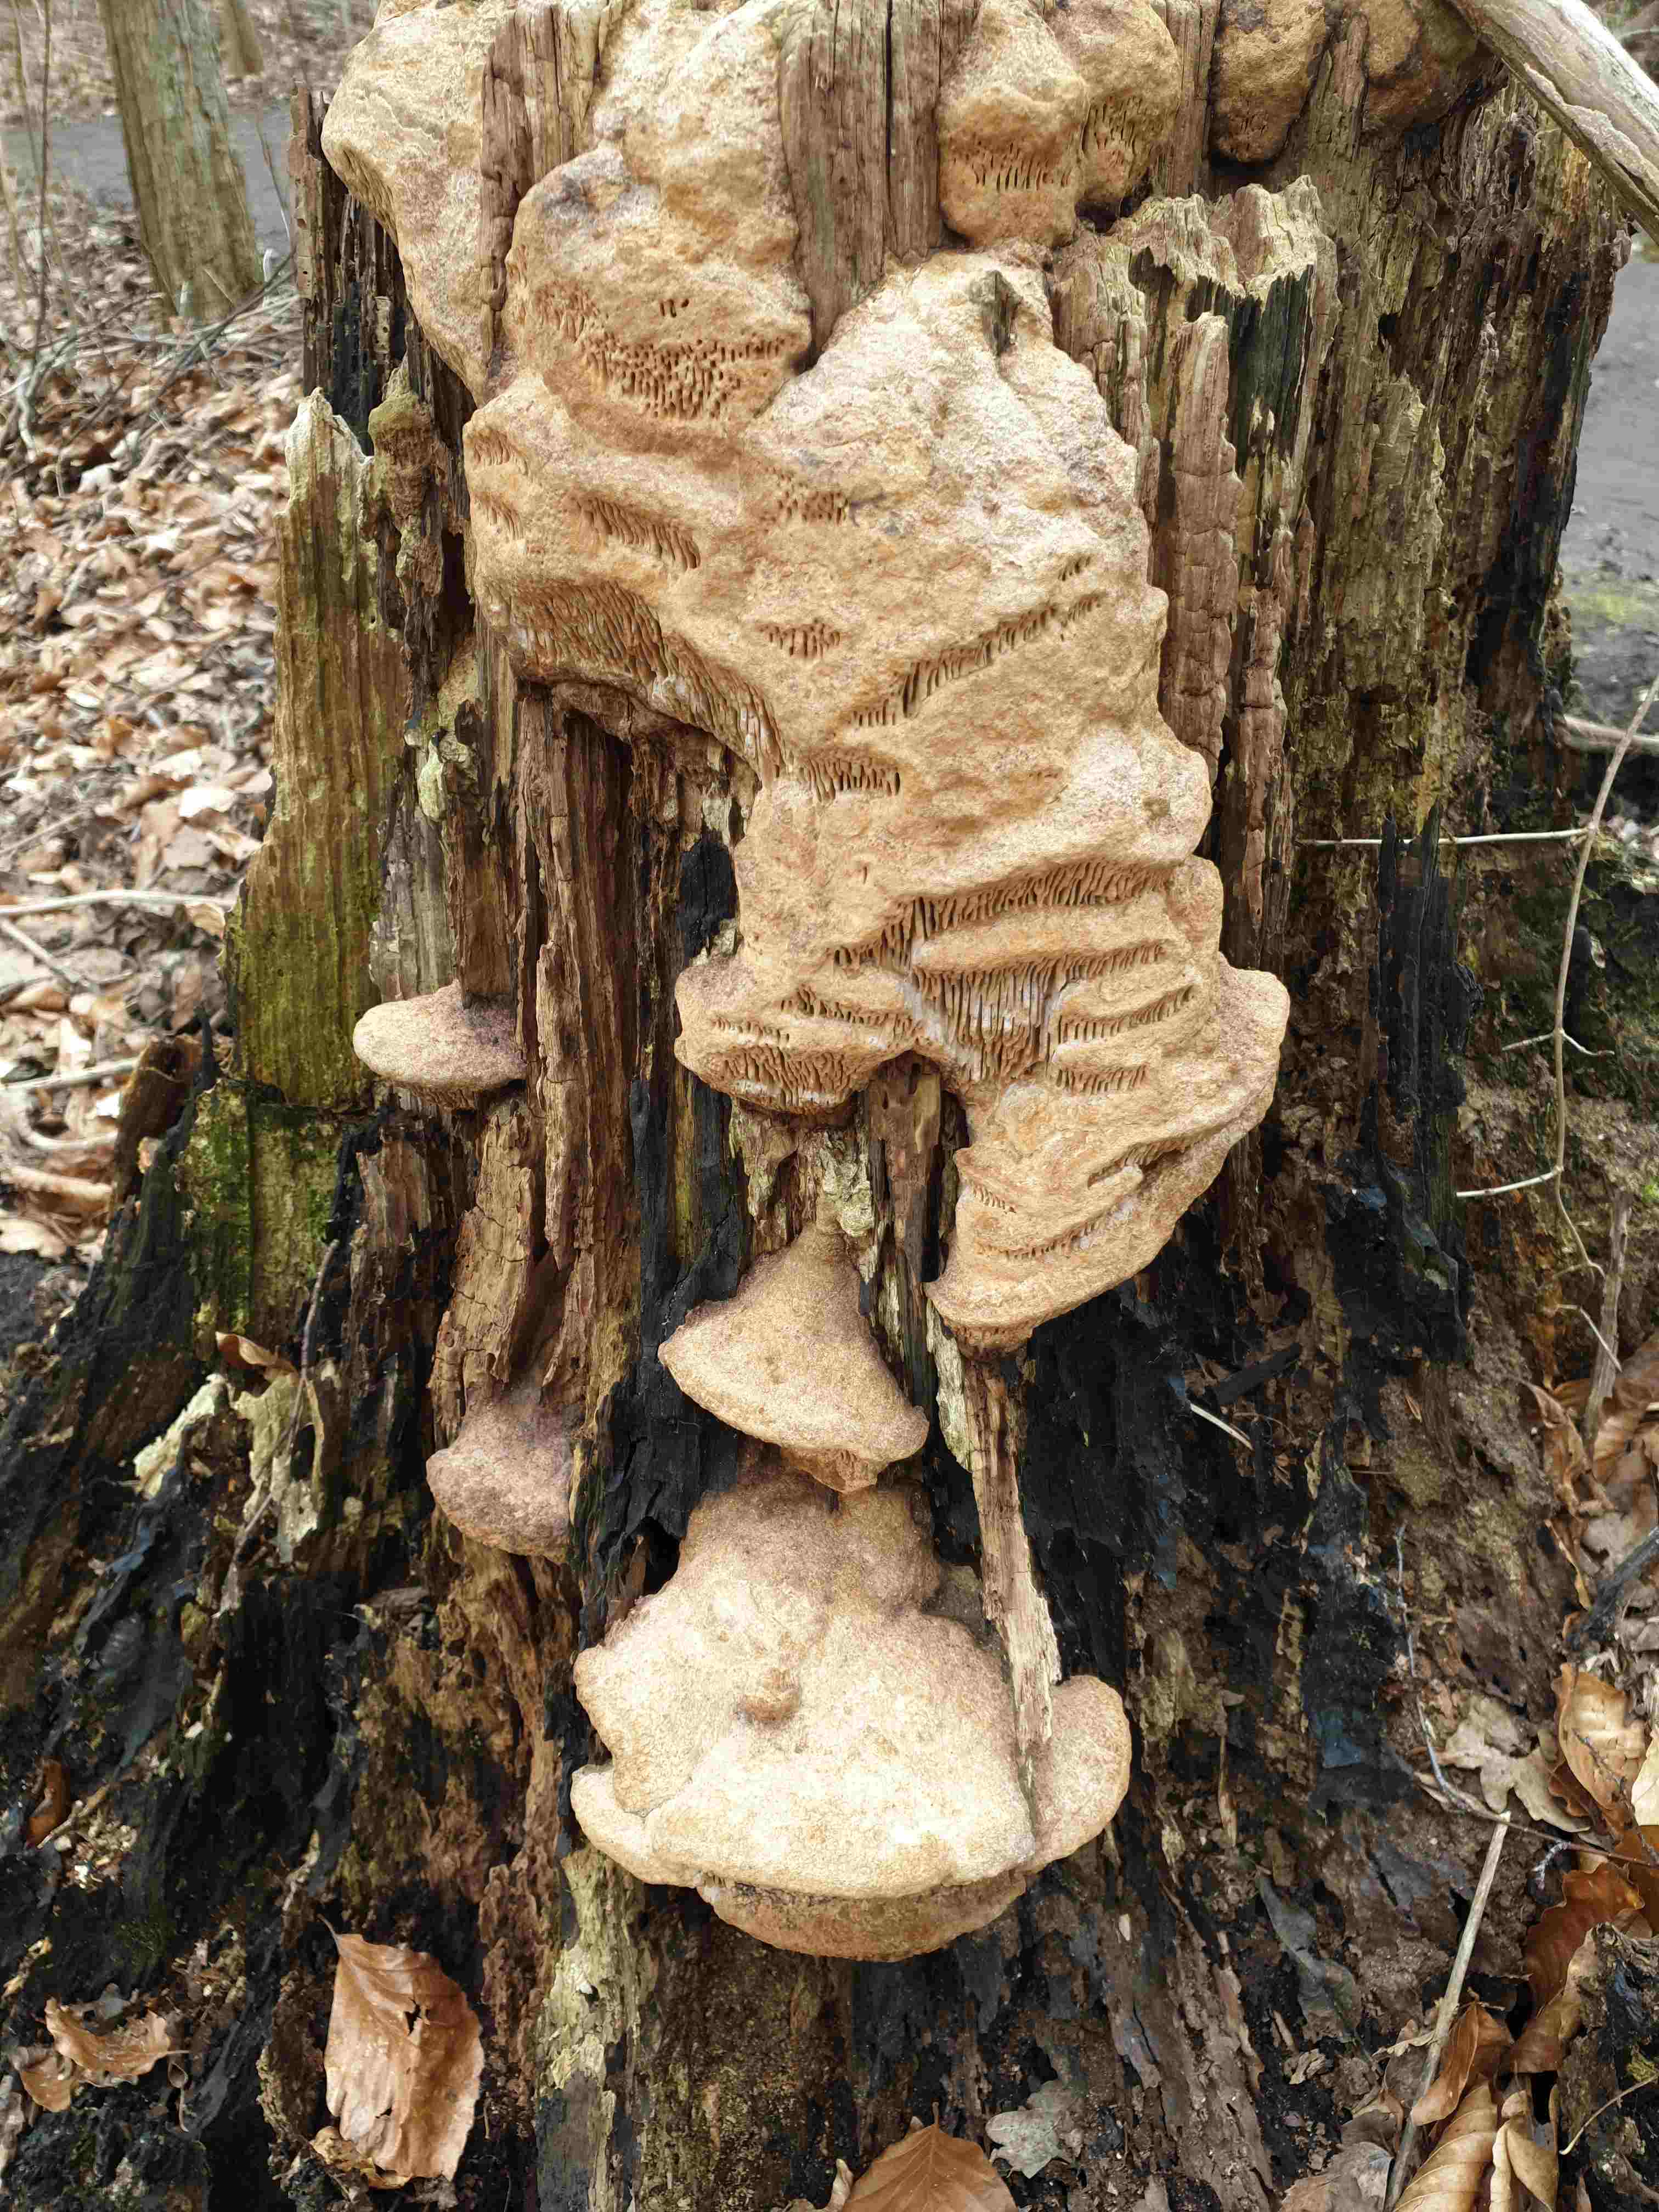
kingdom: Fungi
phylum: Basidiomycota
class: Agaricomycetes
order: Polyporales
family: Fomitopsidaceae
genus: Daedalea
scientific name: Daedalea quercina
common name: ege-labyrintsvamp
